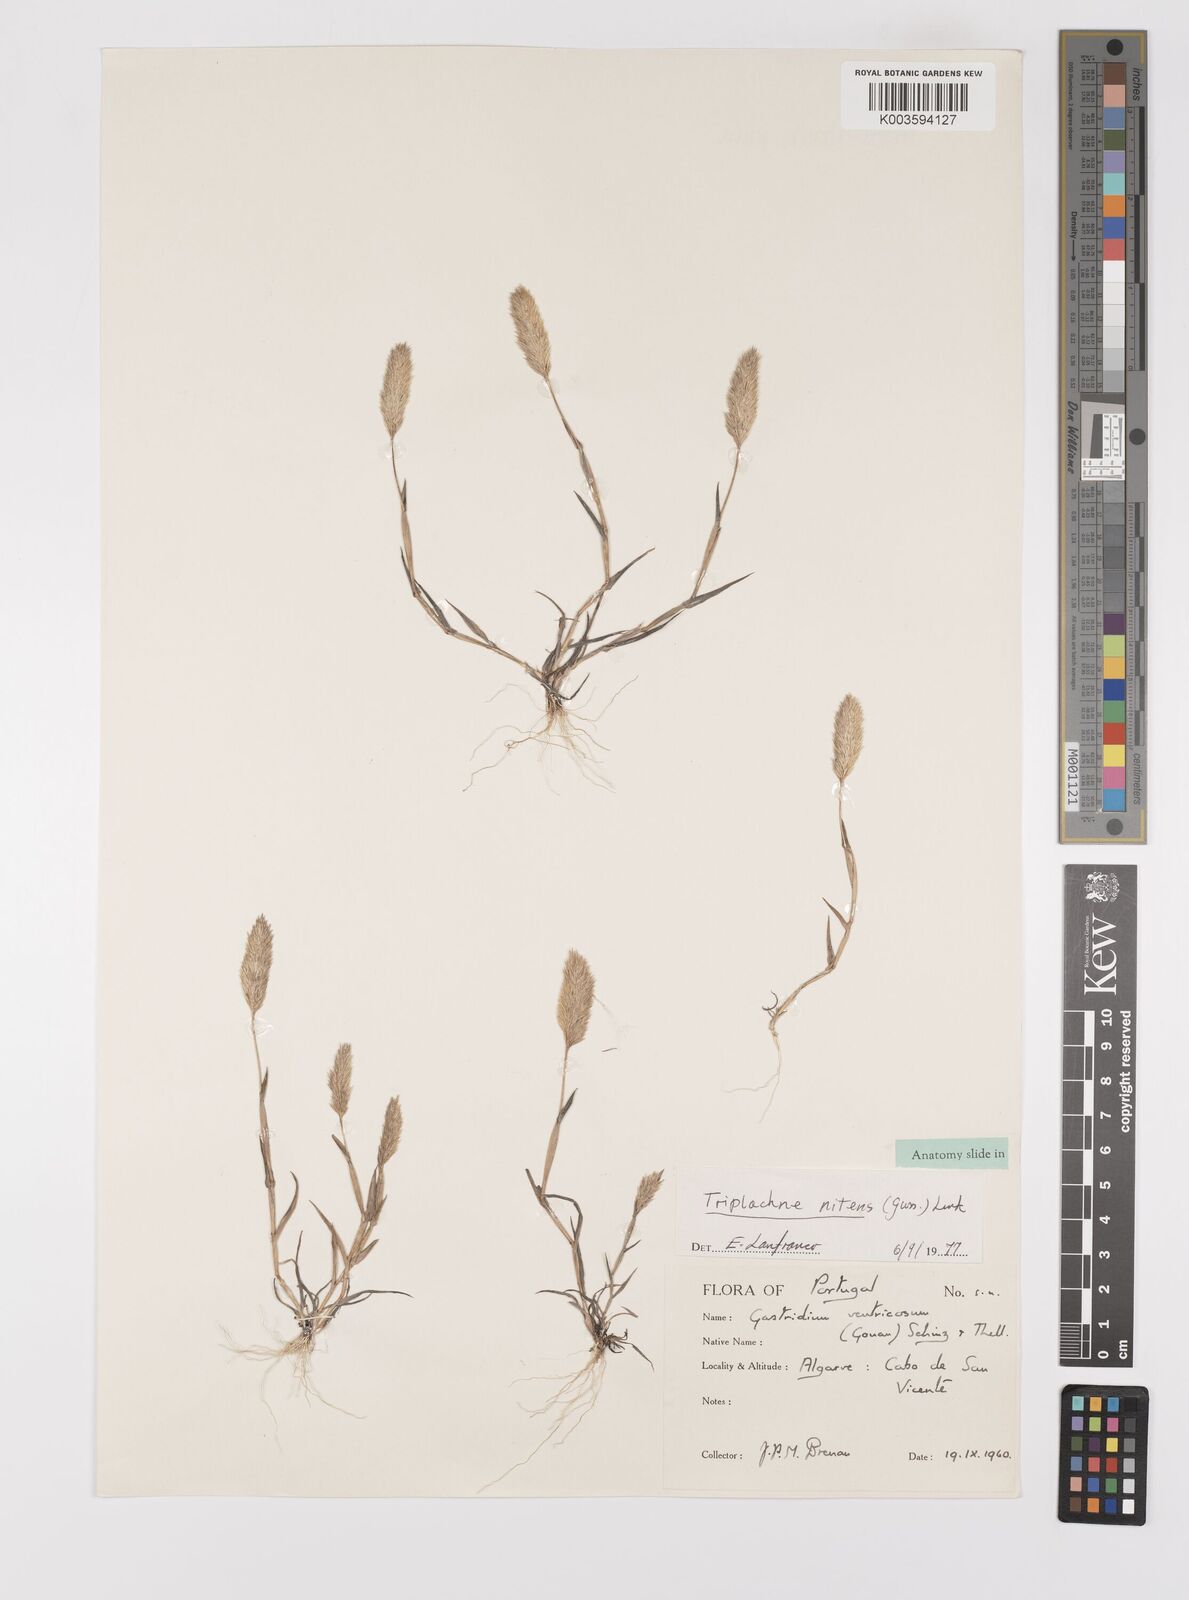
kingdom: Plantae
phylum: Tracheophyta
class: Liliopsida
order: Poales
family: Poaceae
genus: Triplachne
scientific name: Triplachne nitens
